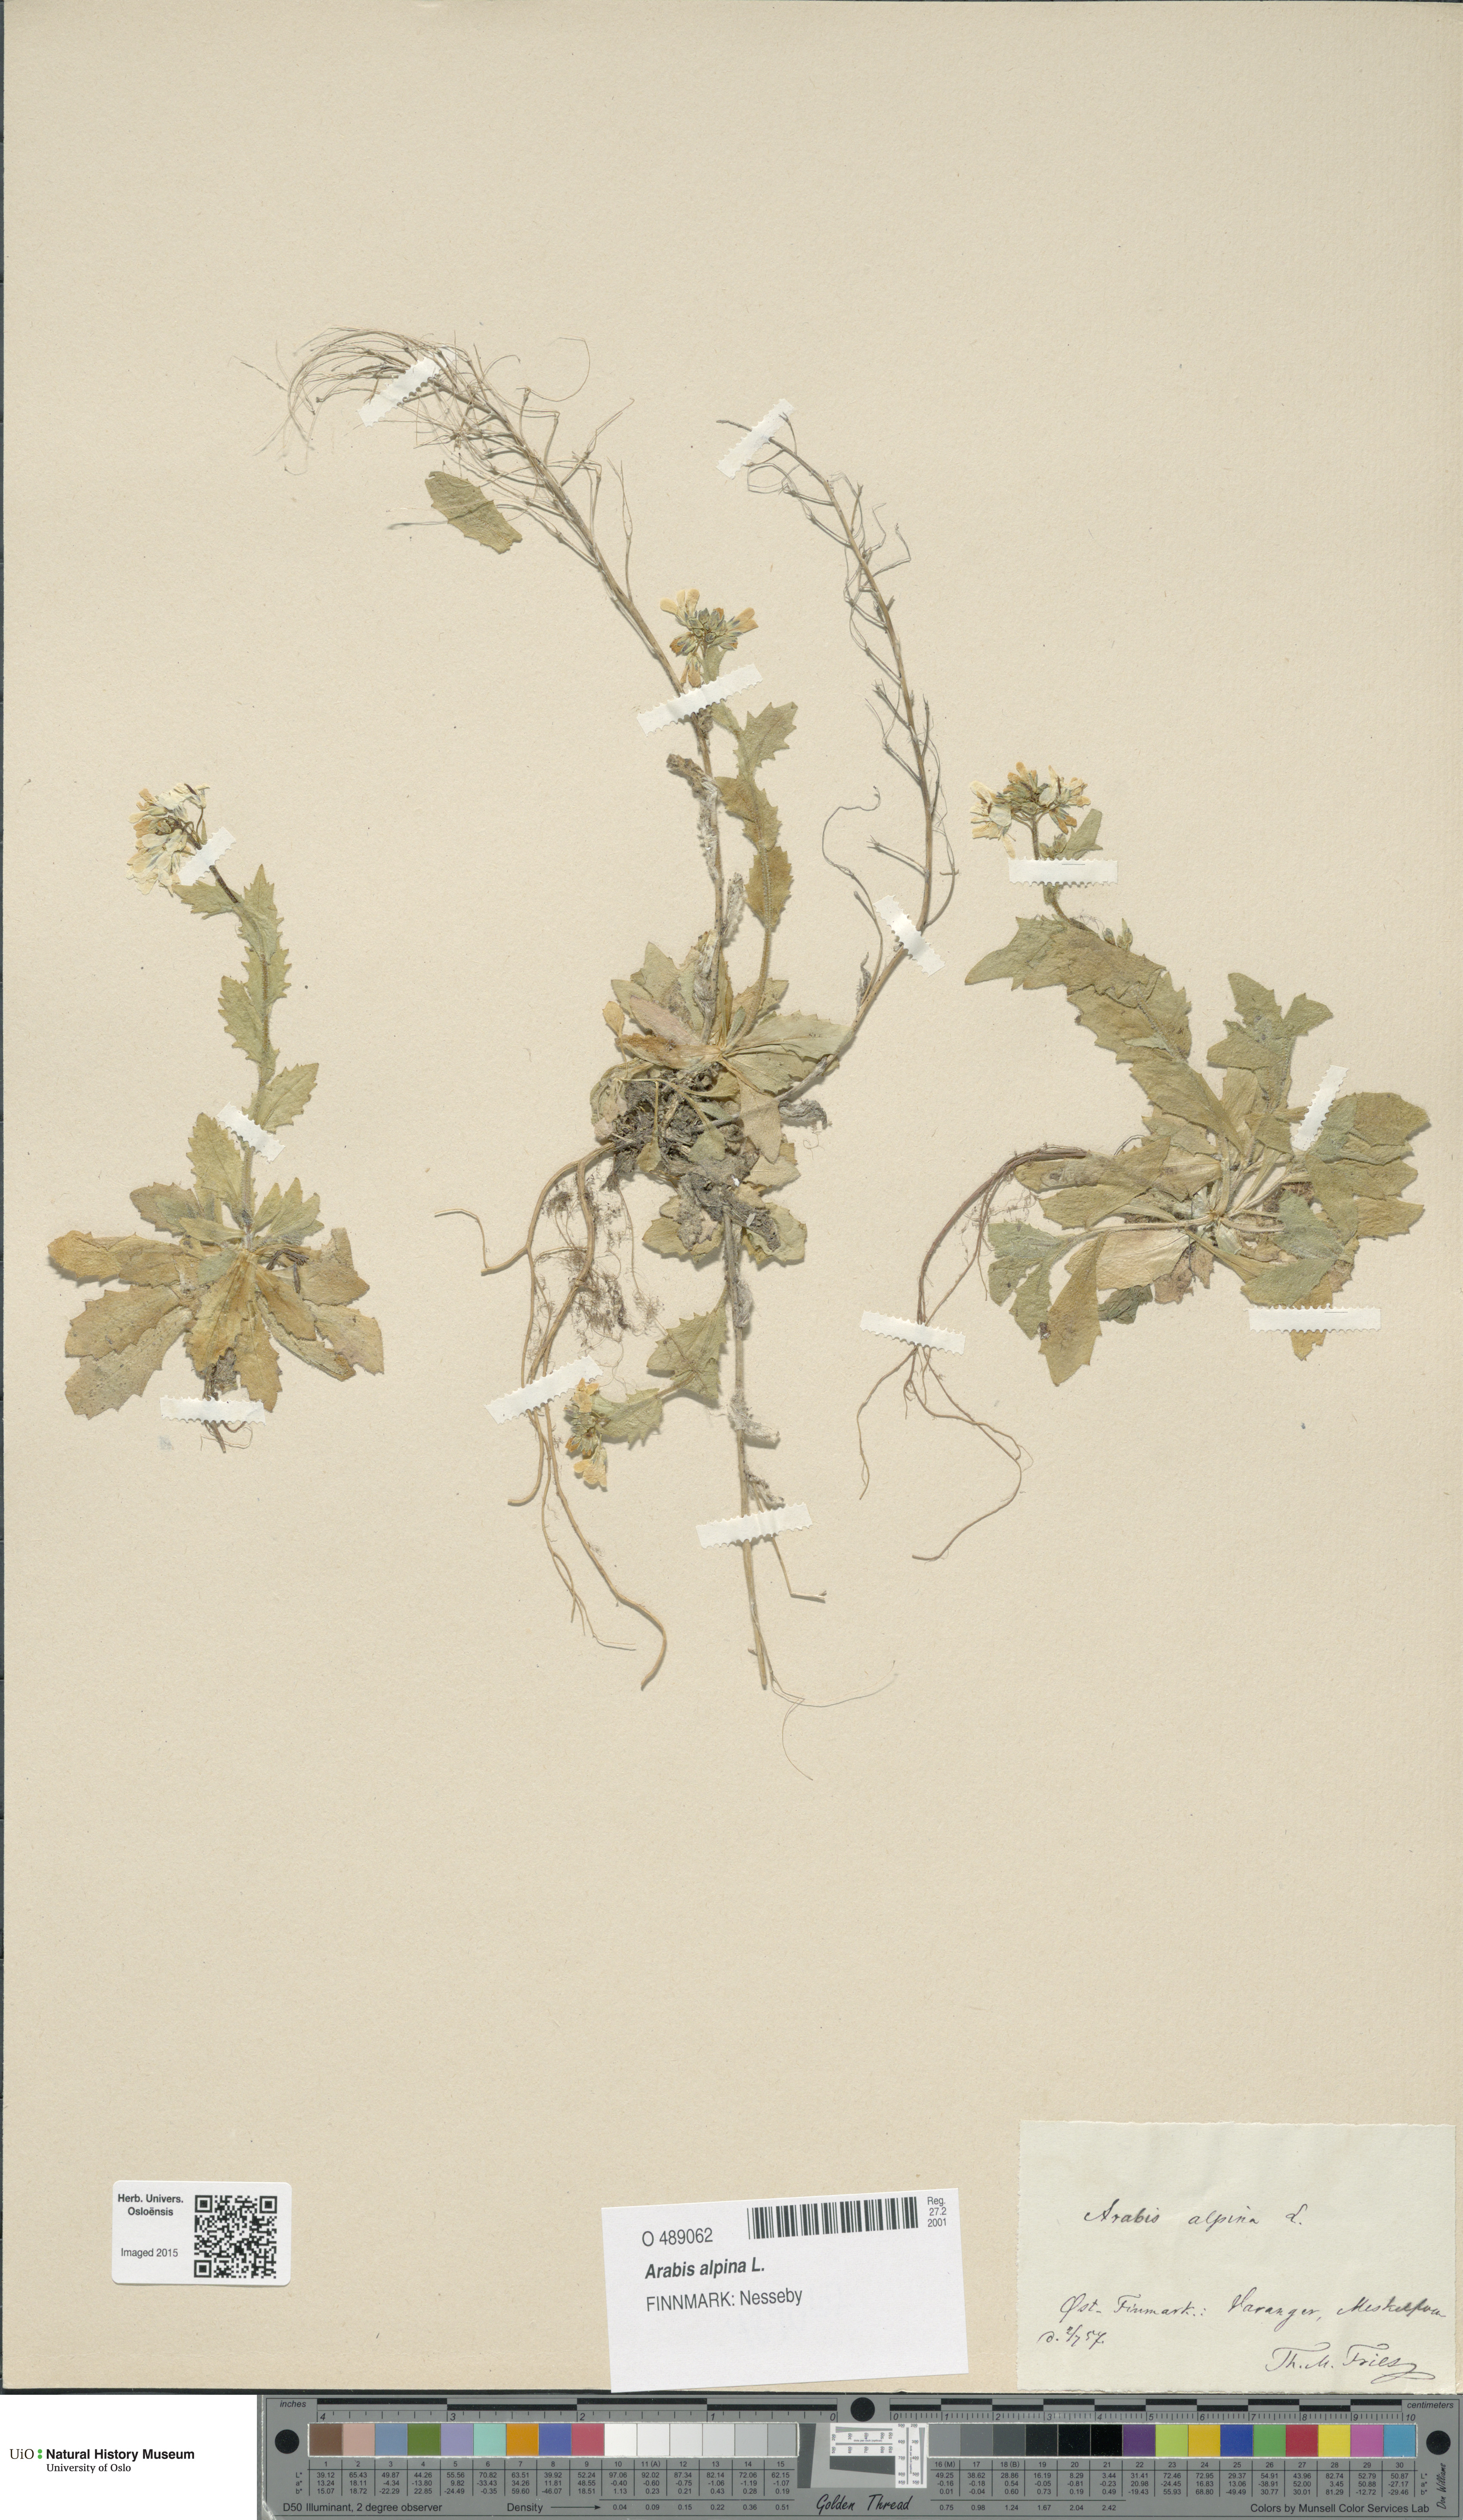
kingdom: Plantae
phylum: Tracheophyta
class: Magnoliopsida
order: Brassicales
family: Brassicaceae
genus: Arabis
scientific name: Arabis alpina
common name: Alpine rock-cress
